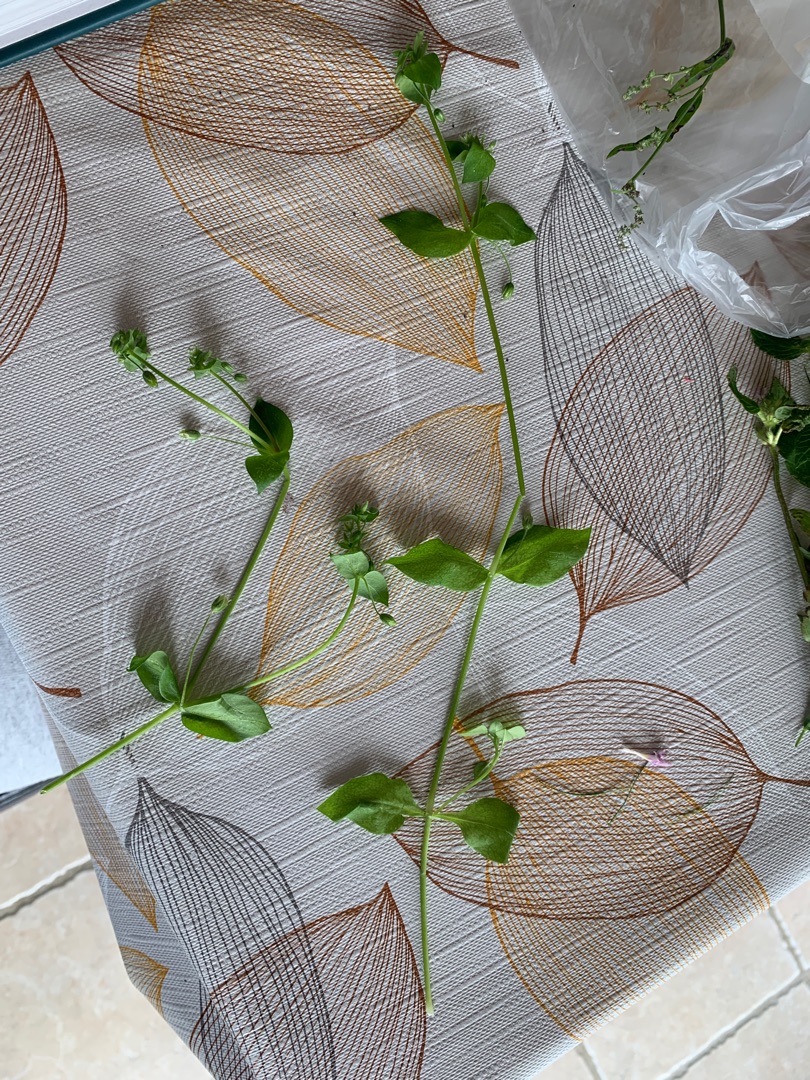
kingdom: Plantae
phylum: Tracheophyta
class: Magnoliopsida
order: Caryophyllales
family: Caryophyllaceae
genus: Stellaria
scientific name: Stellaria media
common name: Almindelig fuglegræs
